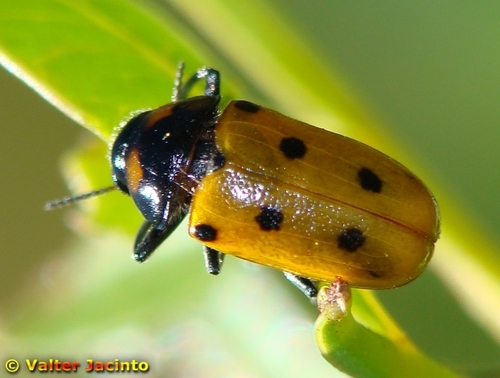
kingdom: Animalia
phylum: Arthropoda
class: Insecta
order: Coleoptera
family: Chrysomelidae
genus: Tituboea
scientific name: Tituboea biguttata
